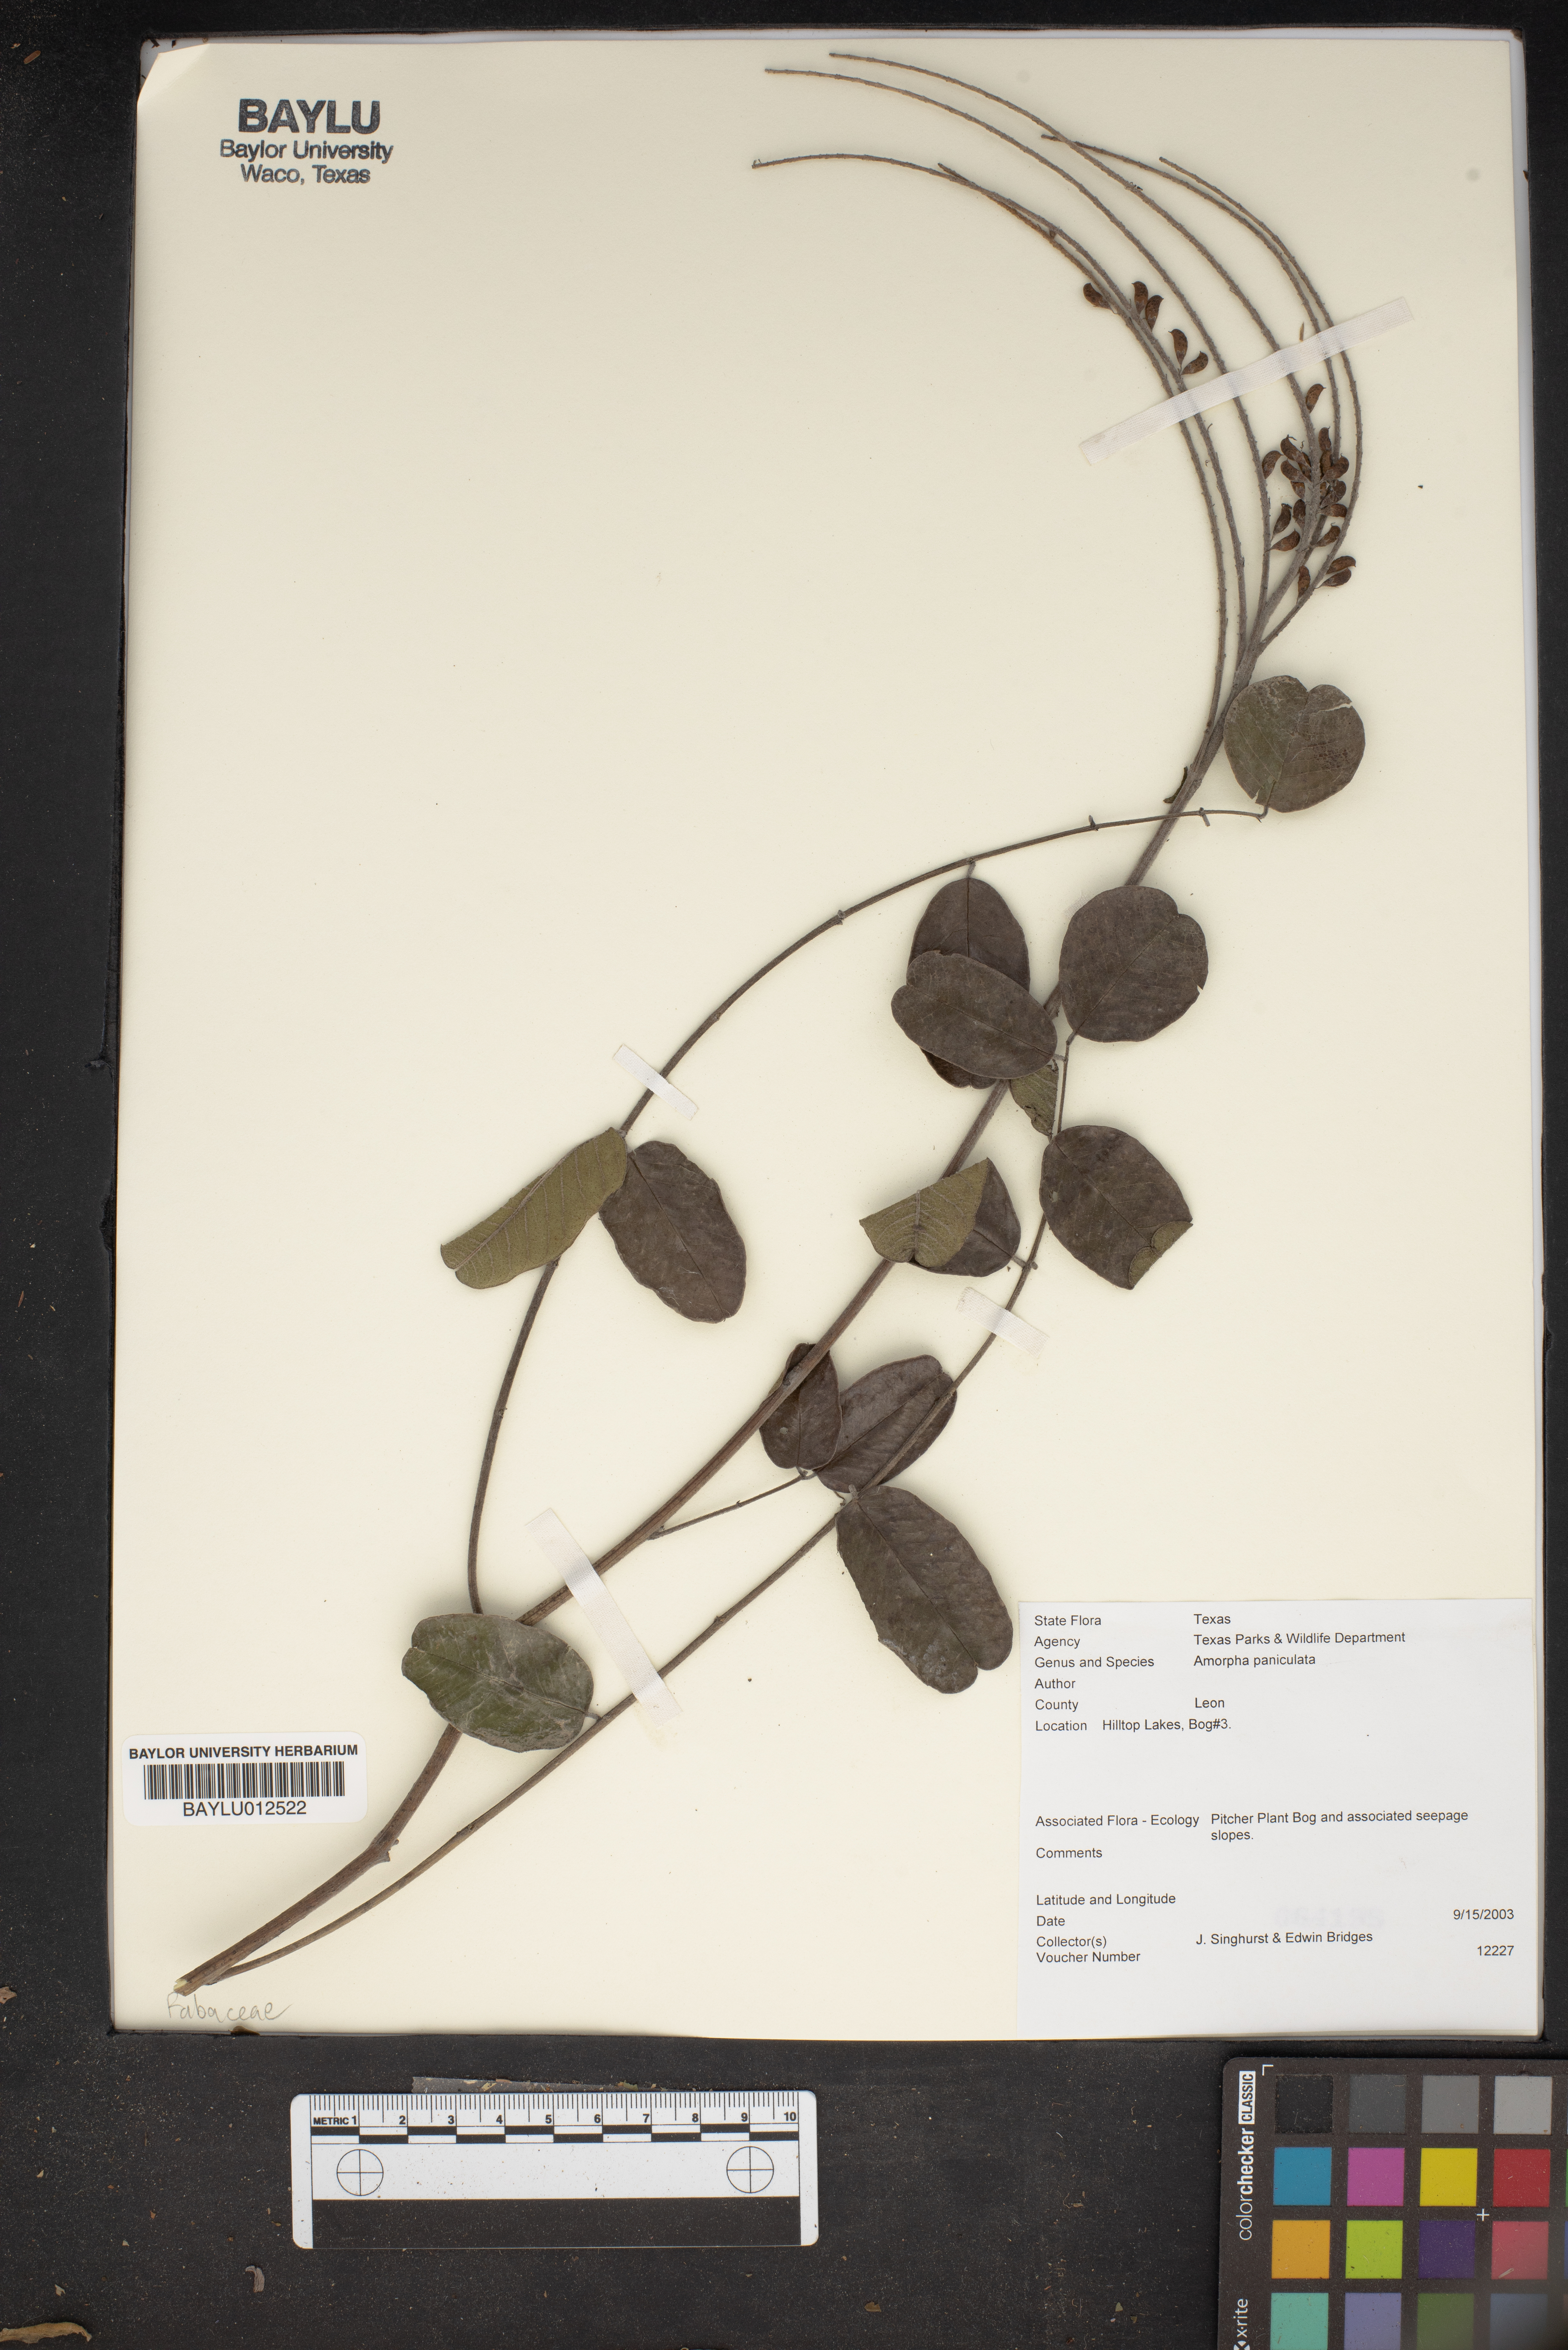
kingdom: Plantae
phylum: Tracheophyta
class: Magnoliopsida
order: Fabales
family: Fabaceae
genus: Amorpha
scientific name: Amorpha paniculata
